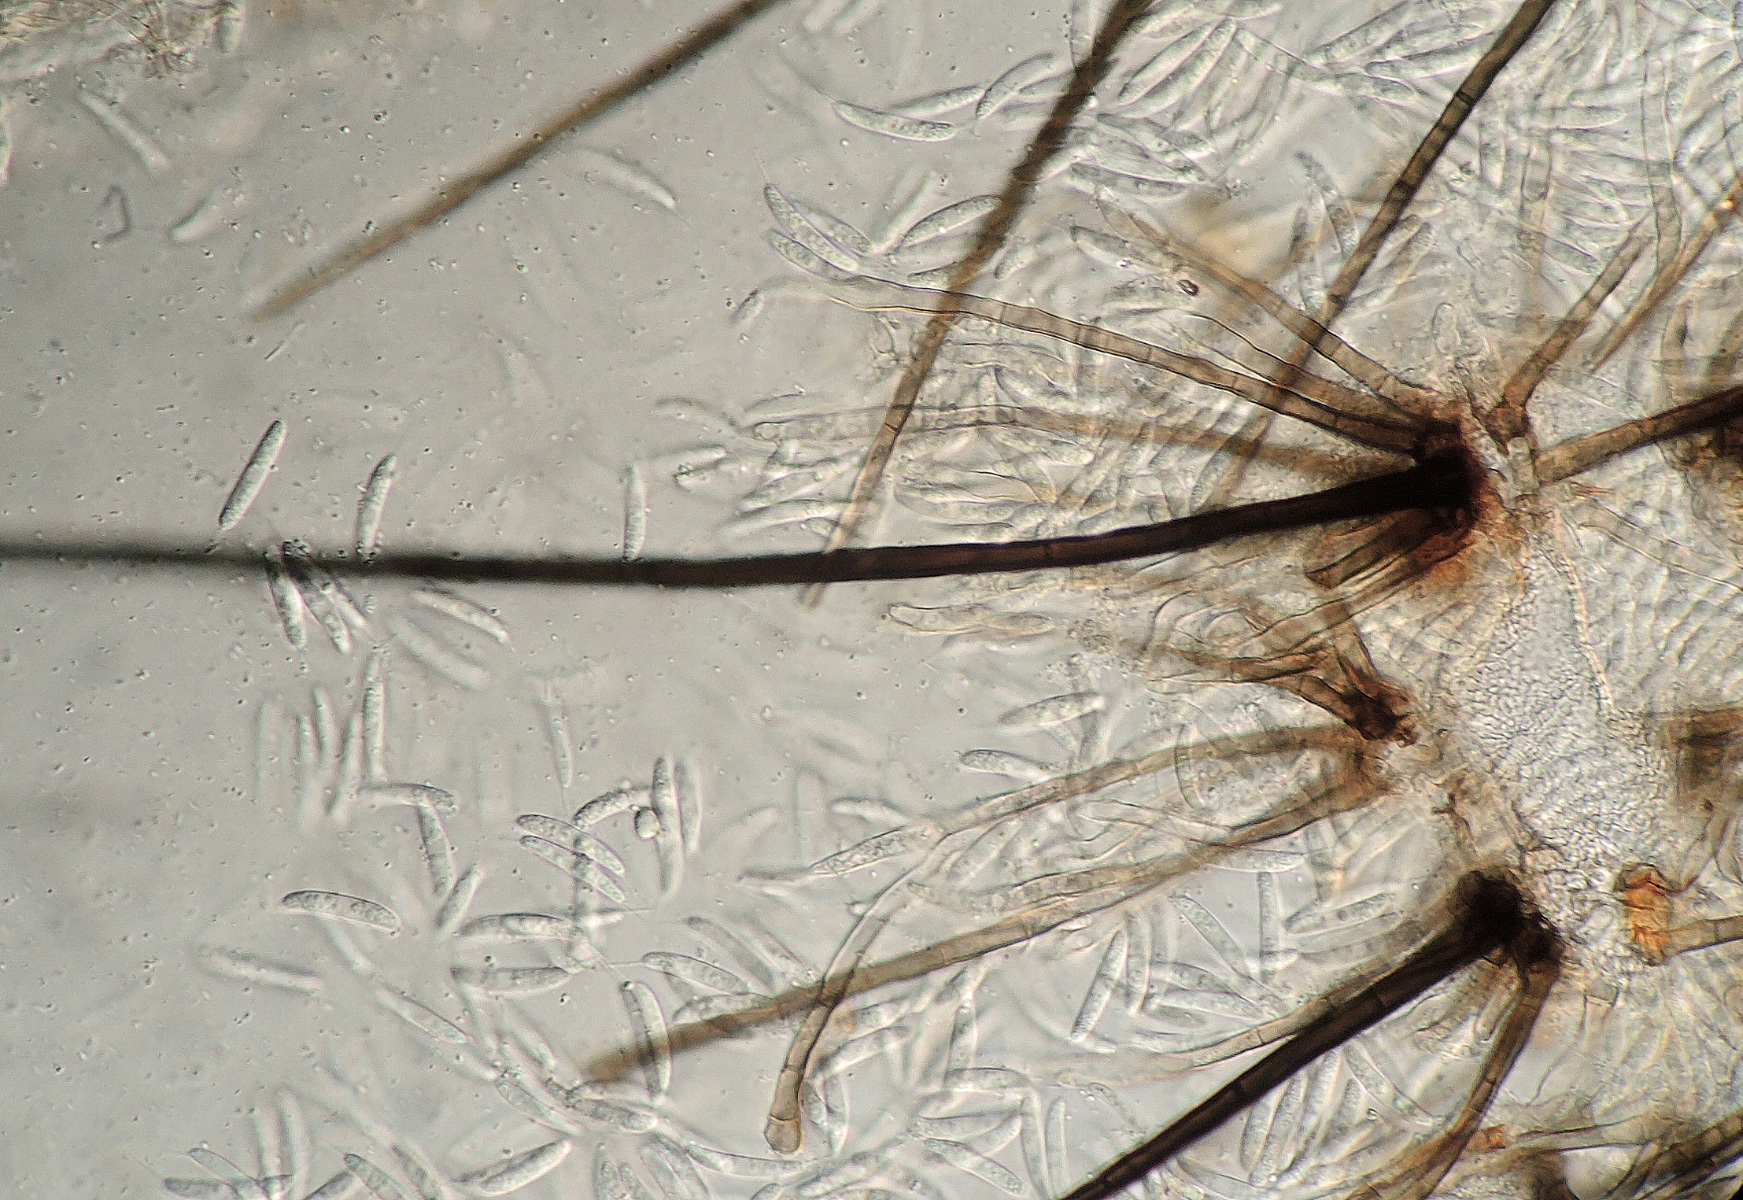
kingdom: Fungi
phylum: Ascomycota
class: Sordariomycetes
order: Chaetosphaeriales
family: Chaetosphaeriaceae
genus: Menispora
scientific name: Menispora britannica
